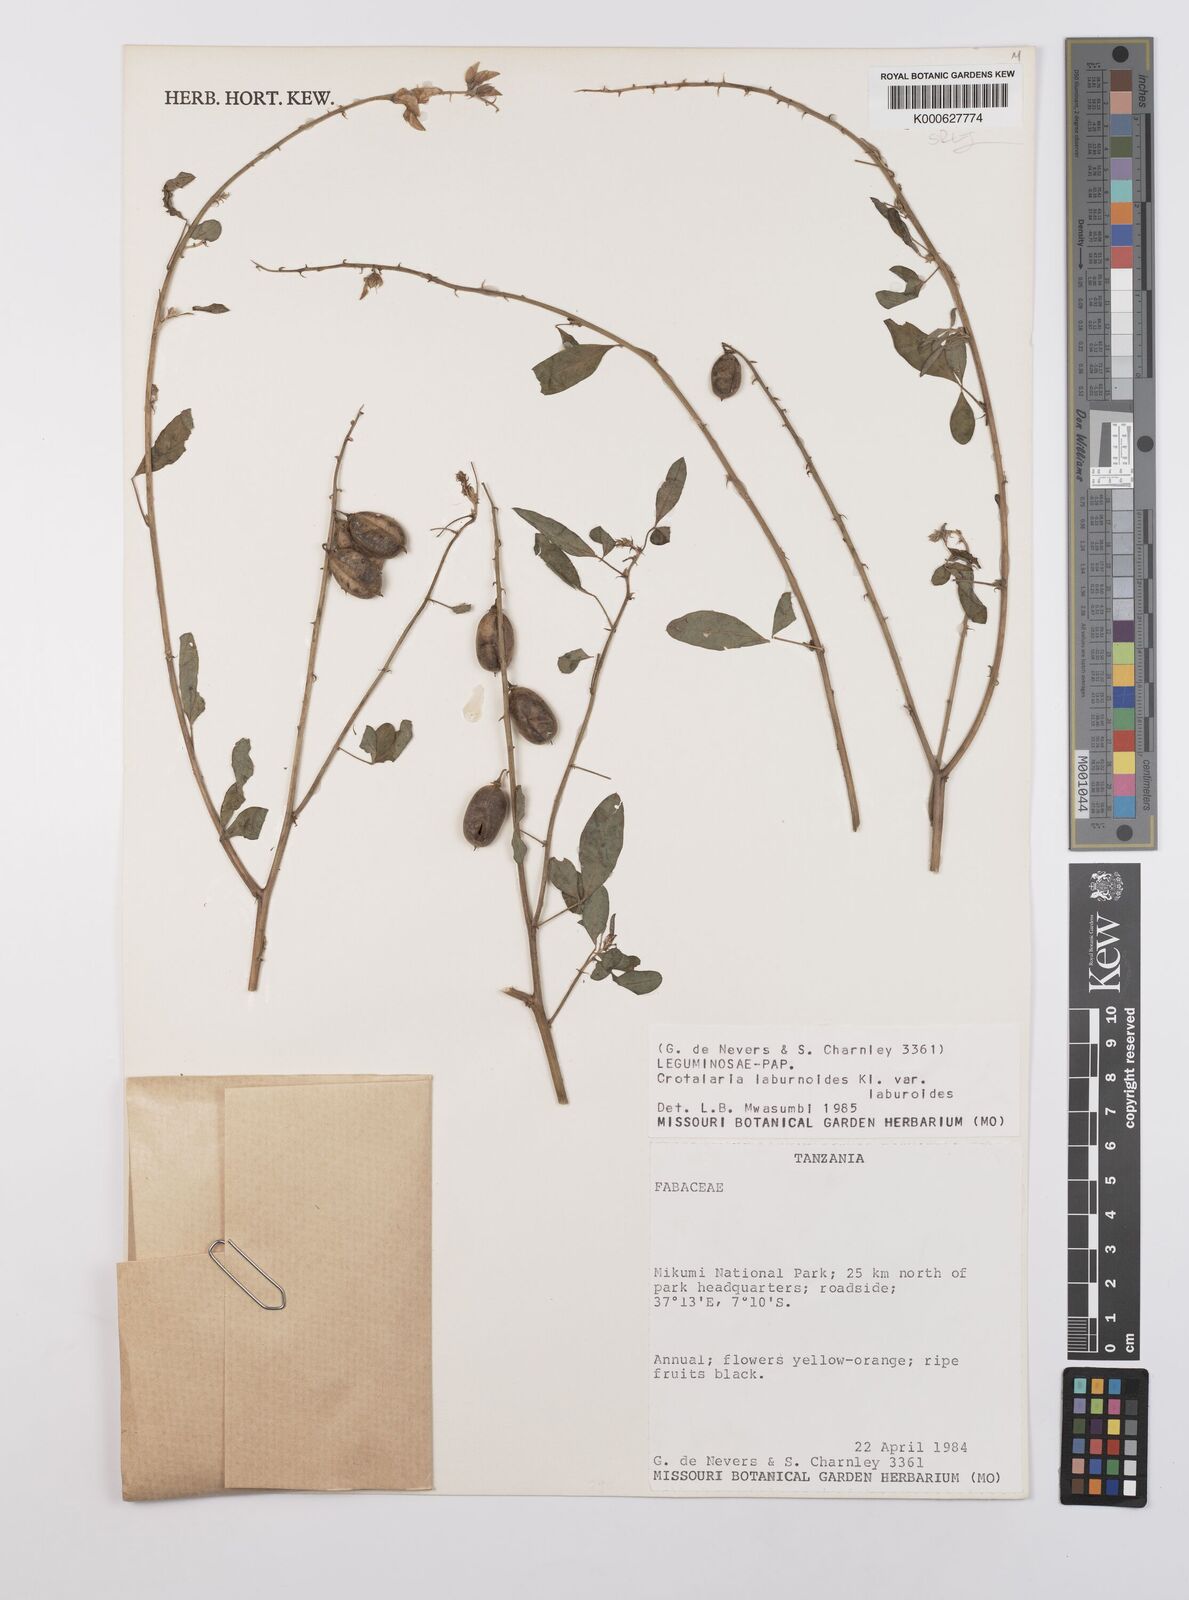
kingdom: Plantae
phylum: Tracheophyta
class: Magnoliopsida
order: Fabales
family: Fabaceae
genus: Crotalaria
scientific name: Crotalaria
